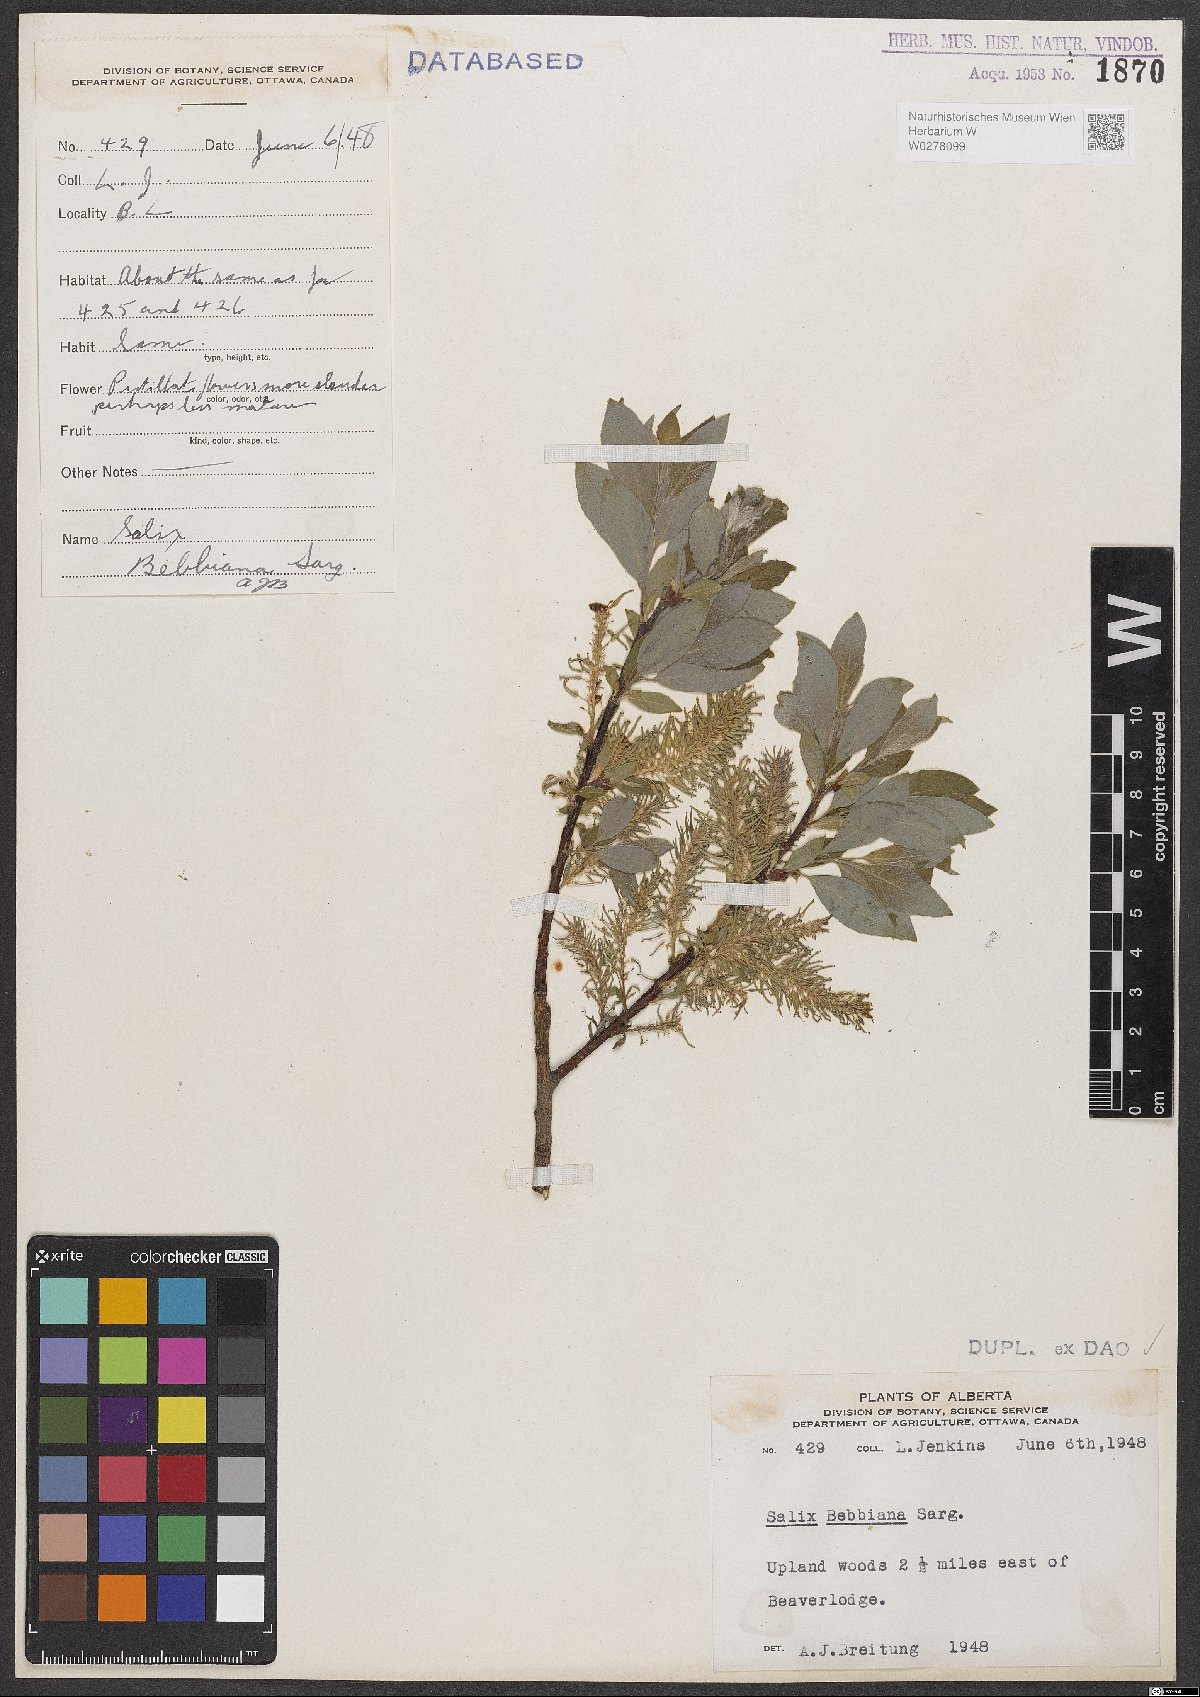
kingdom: Plantae
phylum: Tracheophyta
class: Magnoliopsida
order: Malpighiales
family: Salicaceae
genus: Salix
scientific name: Salix bebbiana
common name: Bebb's willow
